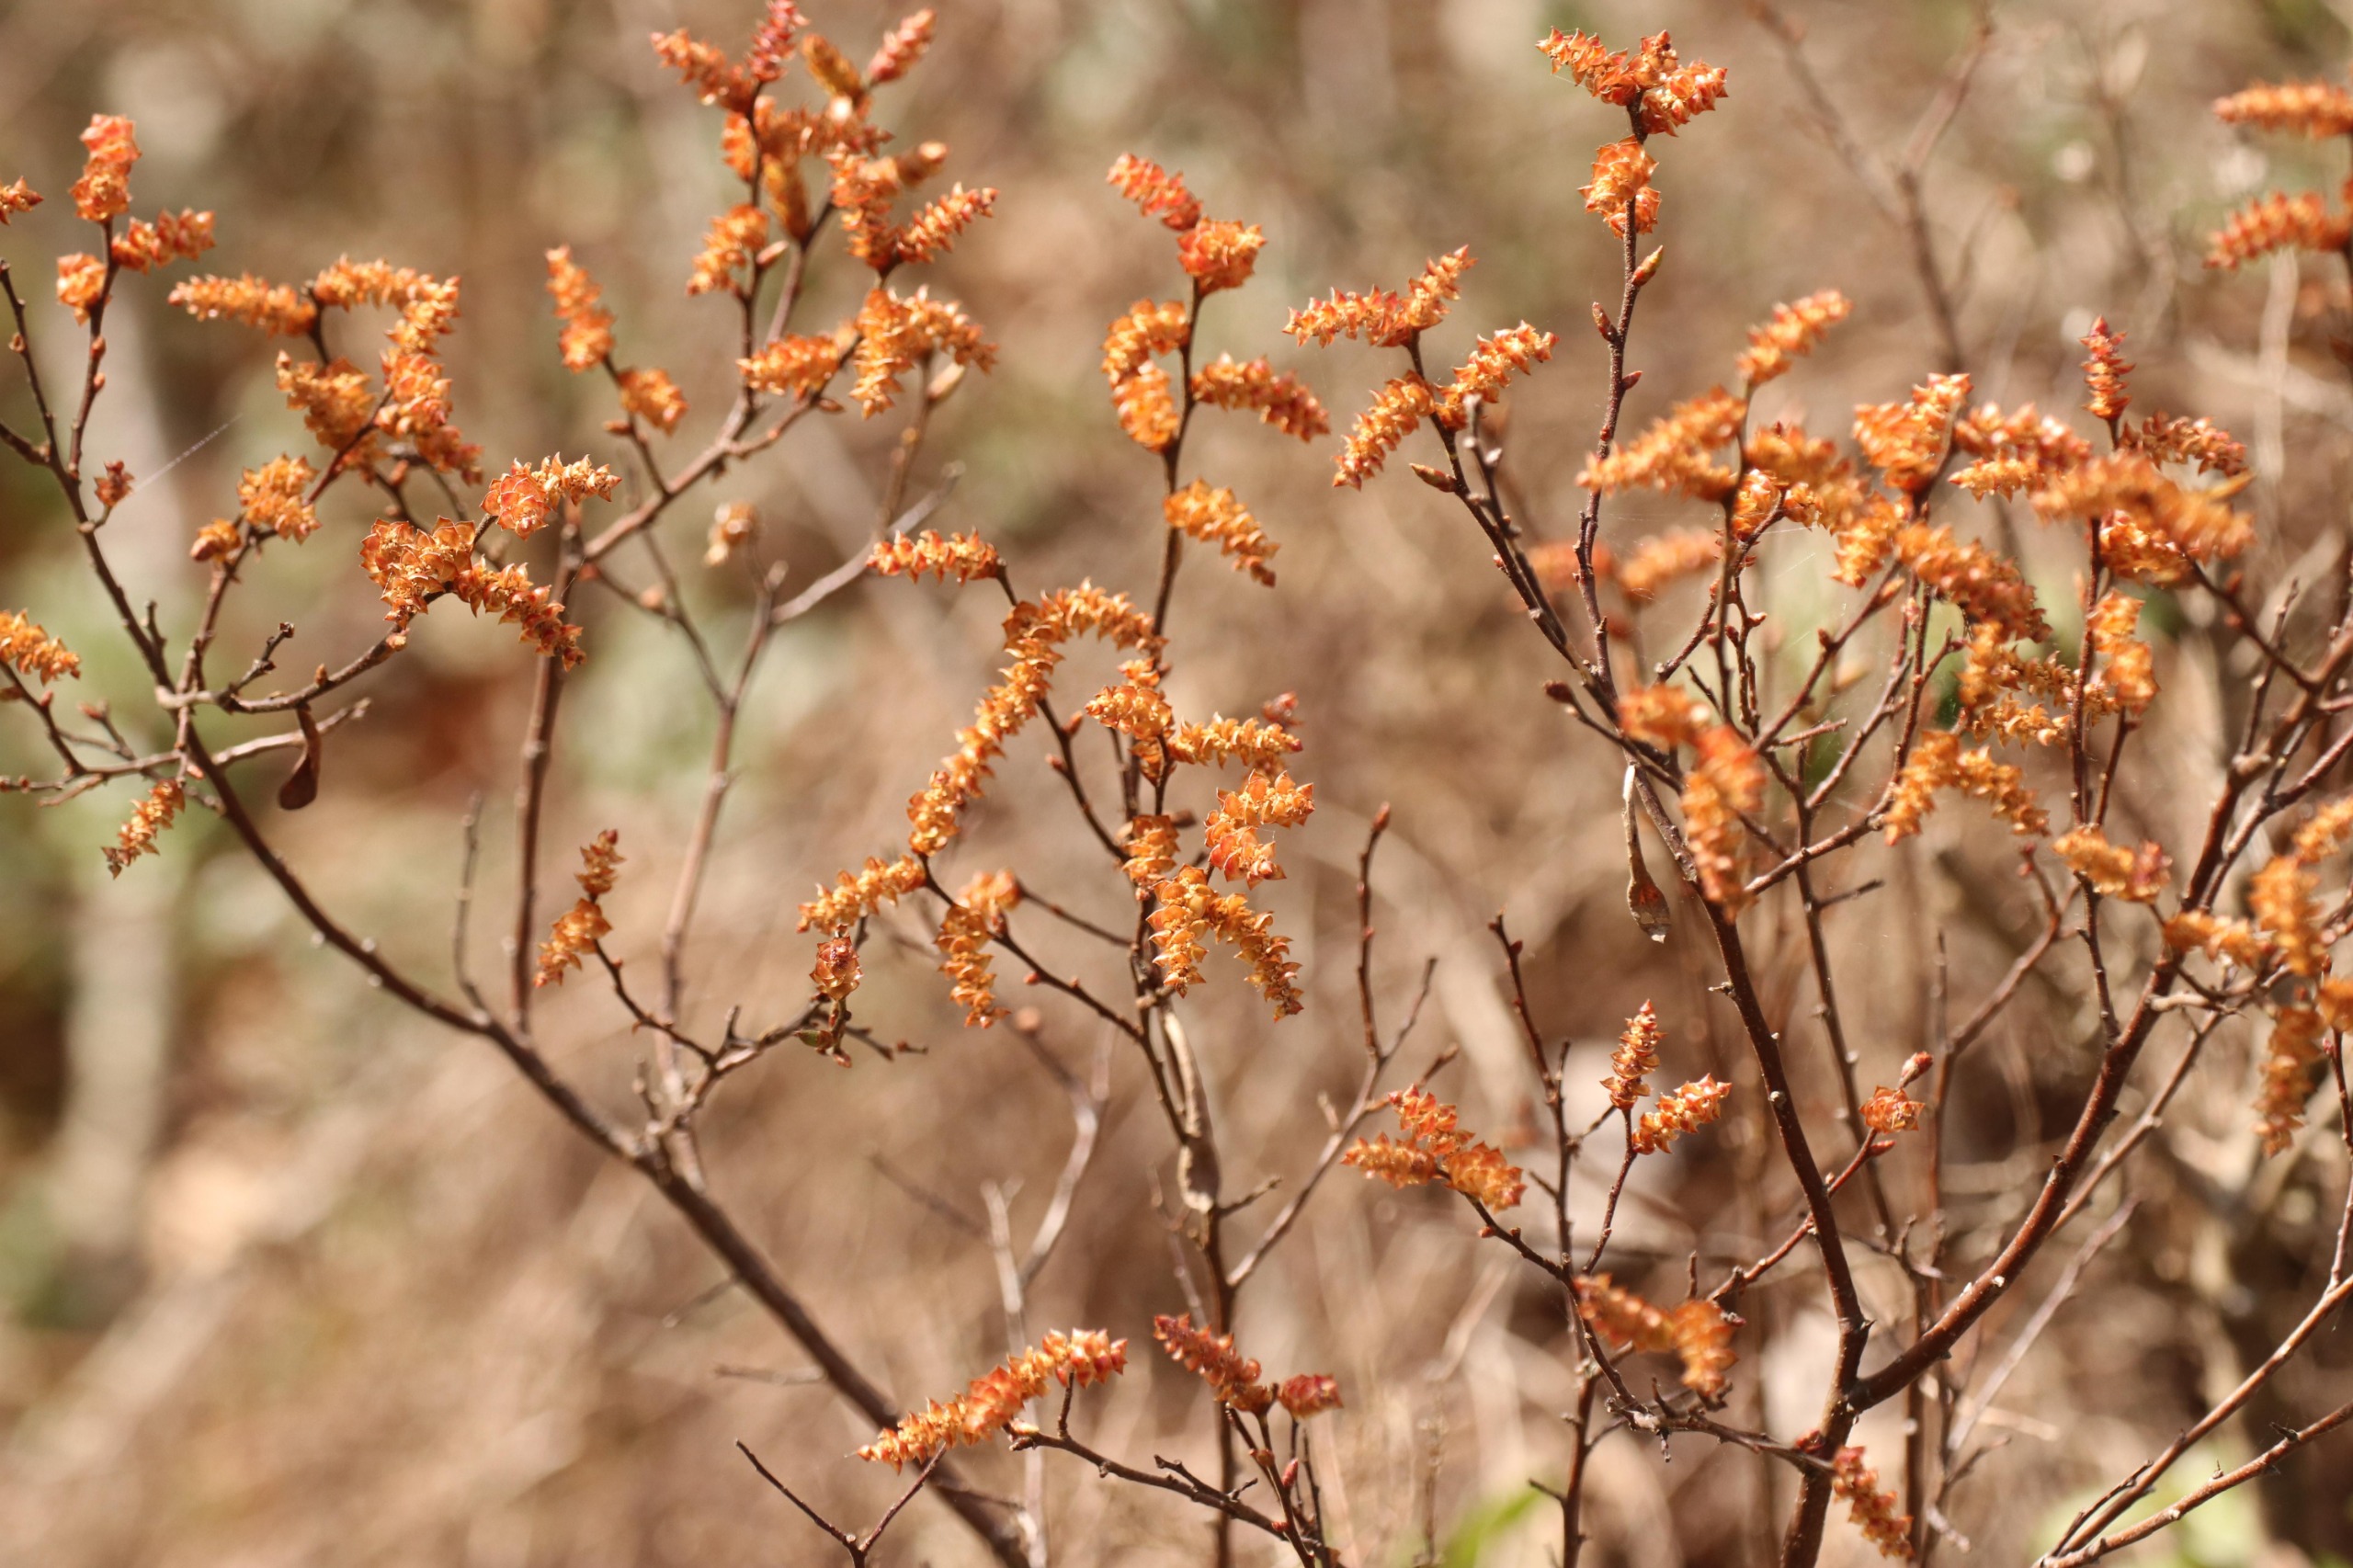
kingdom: Plantae
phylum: Tracheophyta
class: Magnoliopsida
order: Fagales
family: Myricaceae
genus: Myrica
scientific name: Myrica gale
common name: Pors
